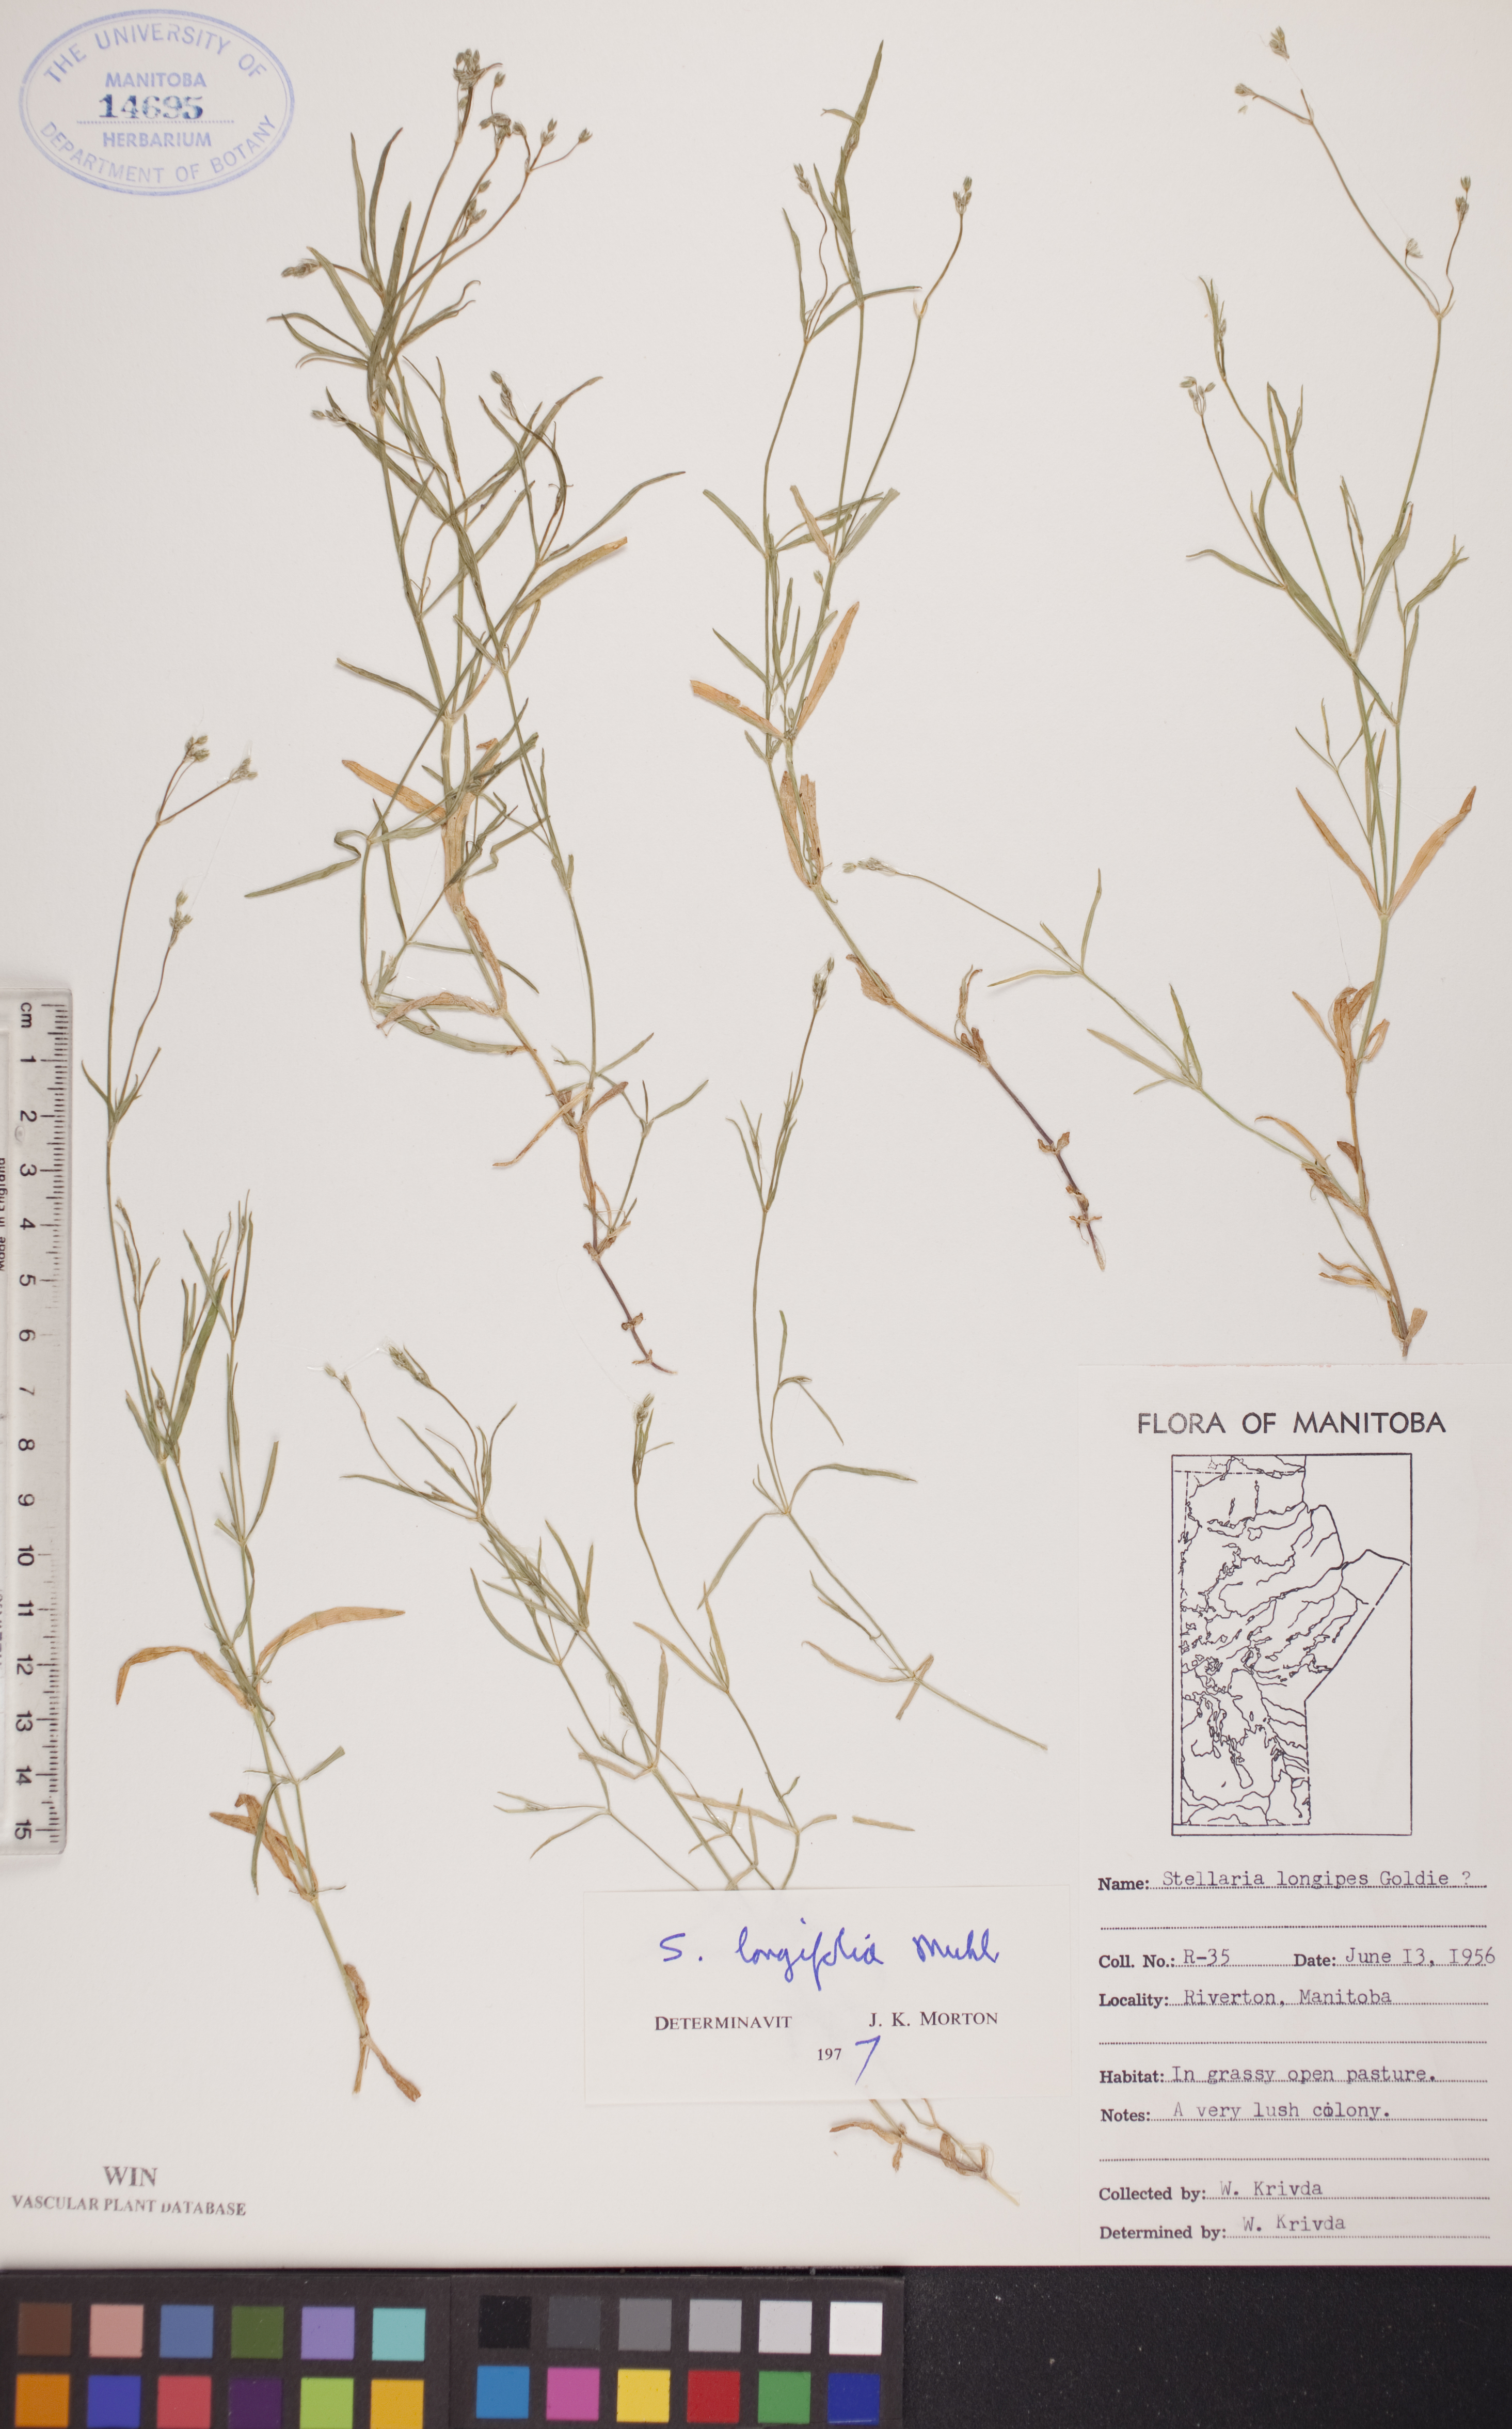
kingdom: Plantae
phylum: Tracheophyta
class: Magnoliopsida
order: Caryophyllales
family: Caryophyllaceae
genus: Stellaria
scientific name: Stellaria longifolia
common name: Long-leaved chickweed
